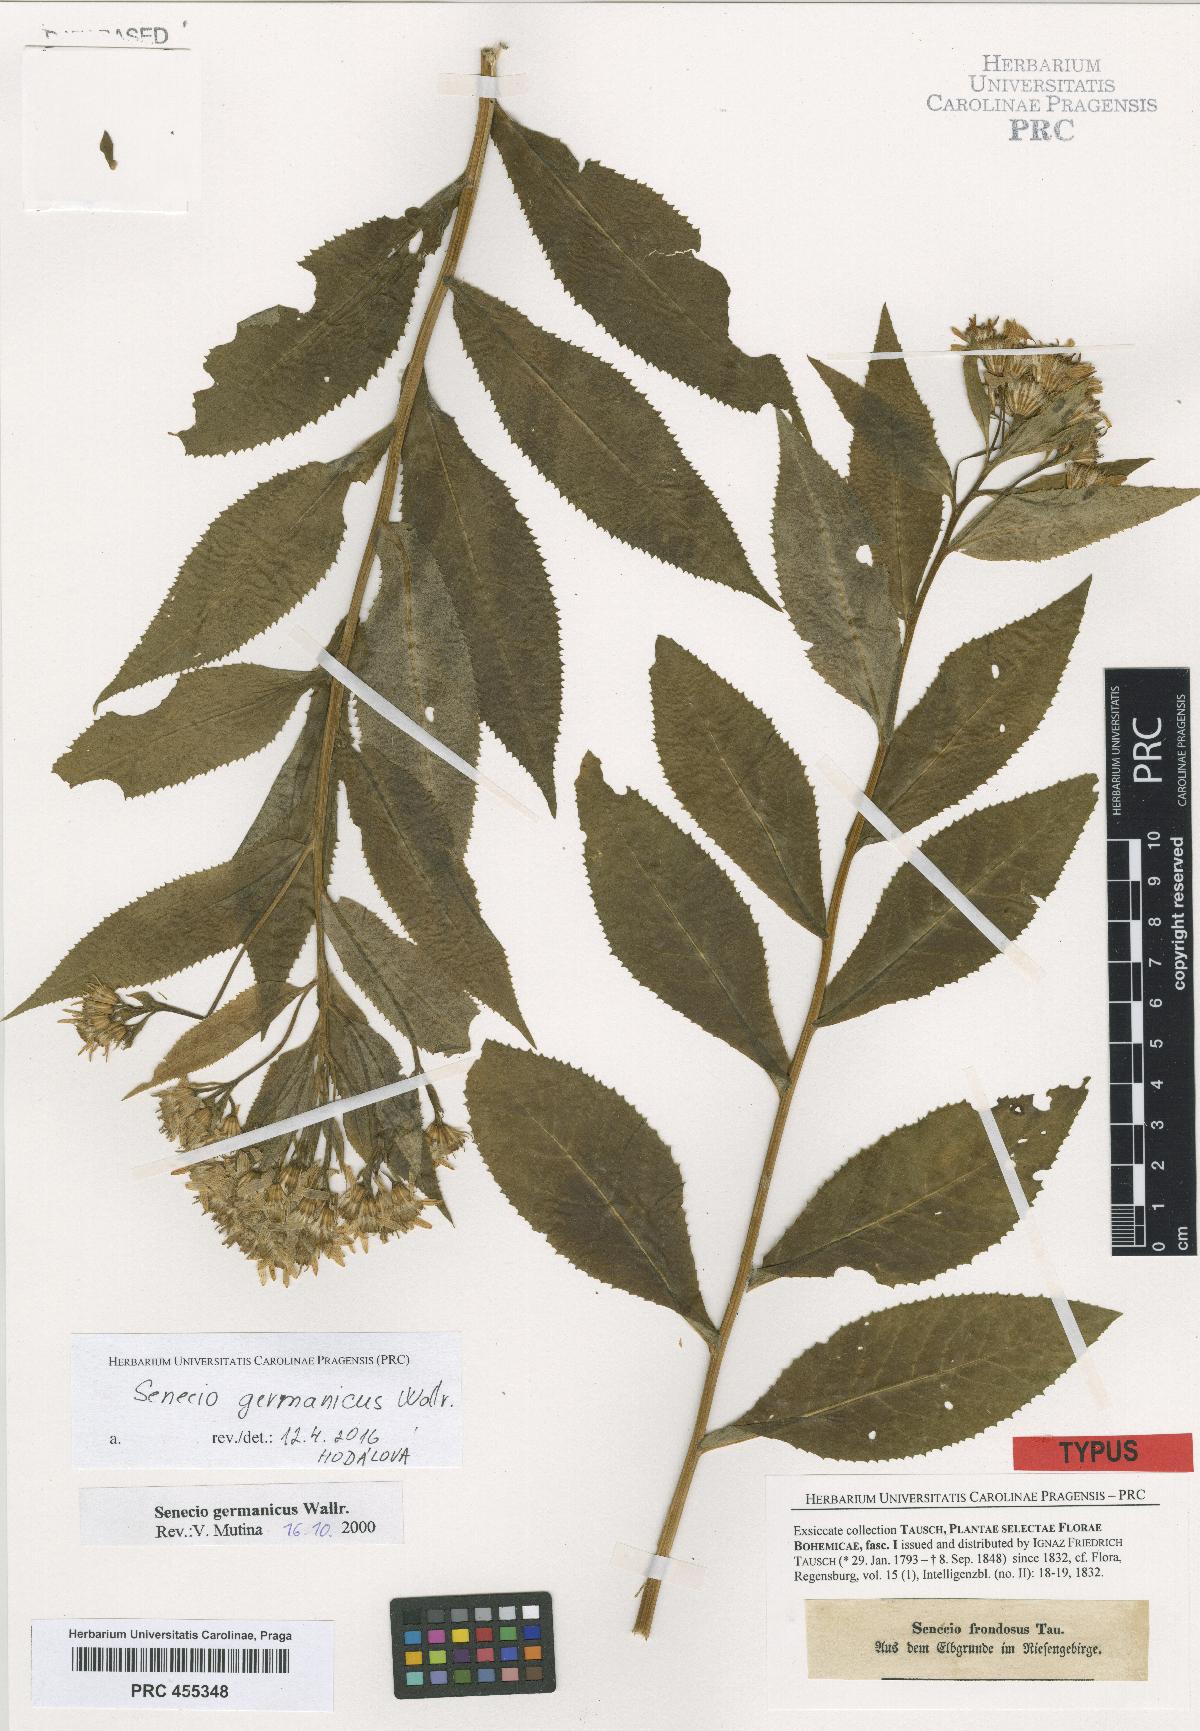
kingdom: Plantae
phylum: Tracheophyta
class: Magnoliopsida
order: Asterales
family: Asteraceae
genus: Senecio
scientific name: Senecio germanicus
